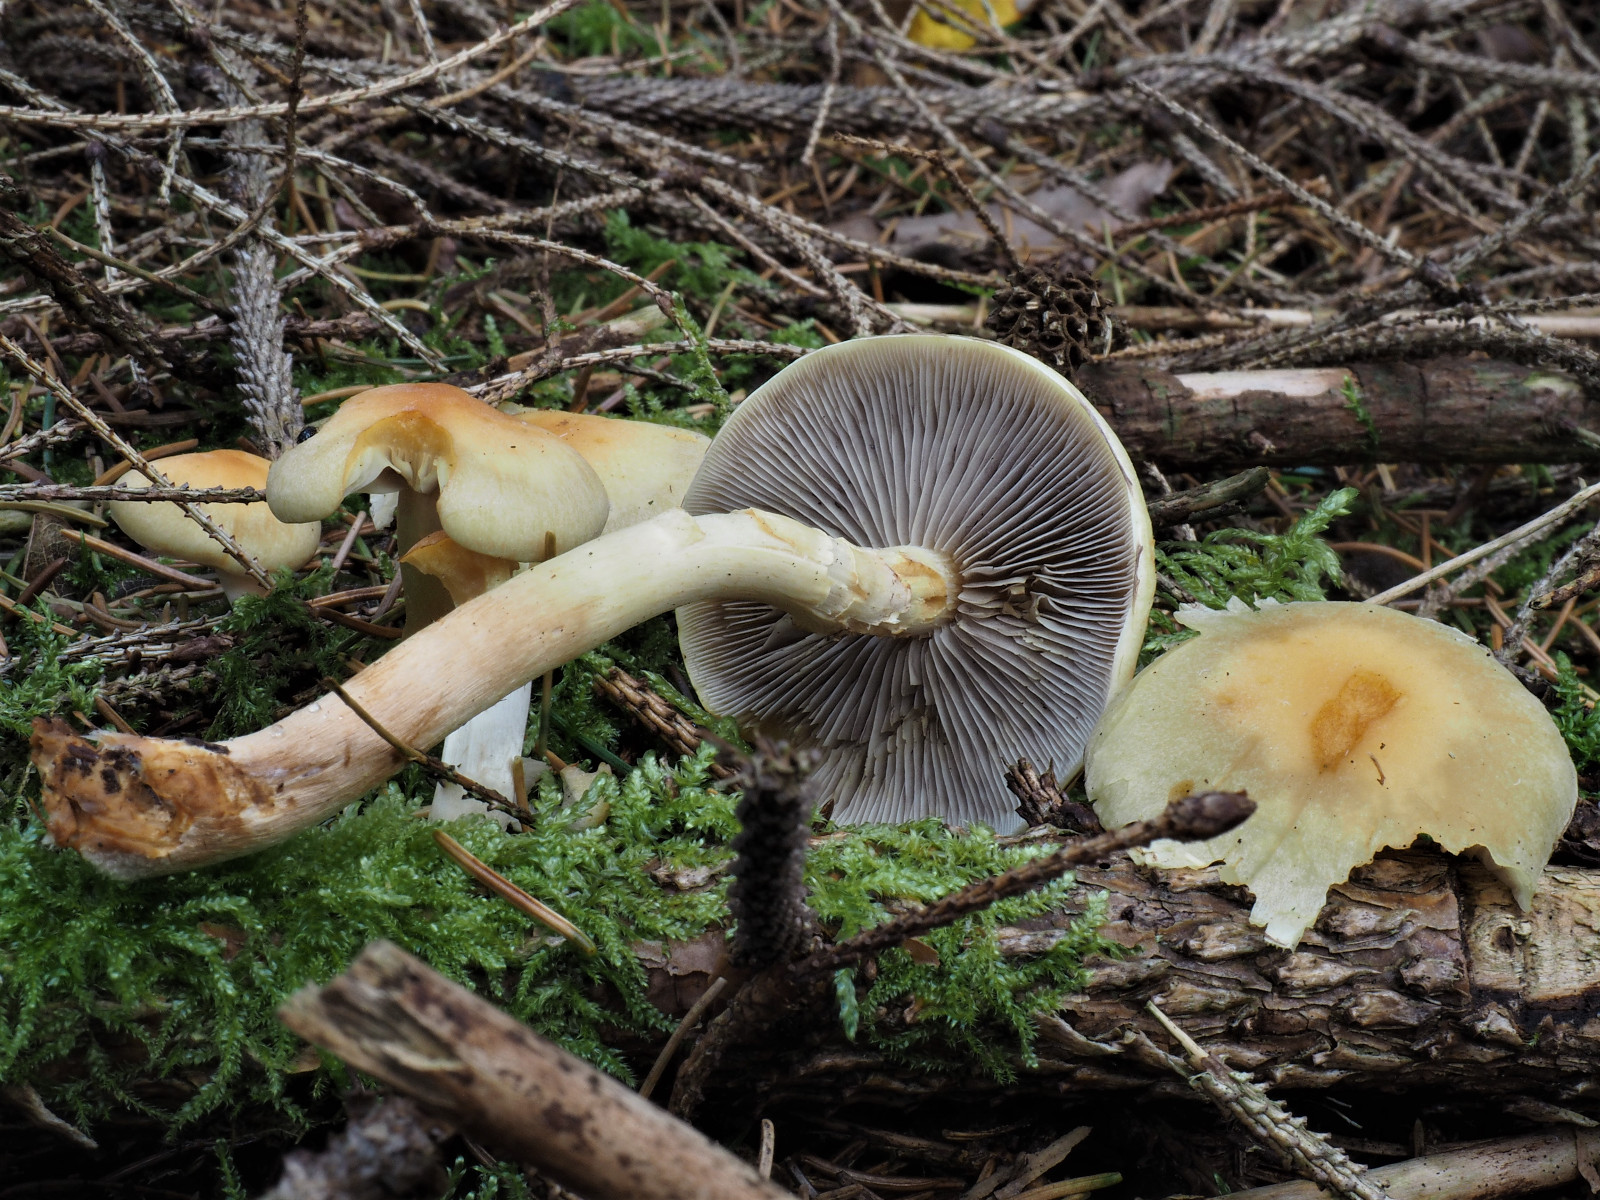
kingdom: Fungi
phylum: Basidiomycota
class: Agaricomycetes
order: Agaricales
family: Strophariaceae
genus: Hypholoma
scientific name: Hypholoma capnoides
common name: gran-svovlhat
